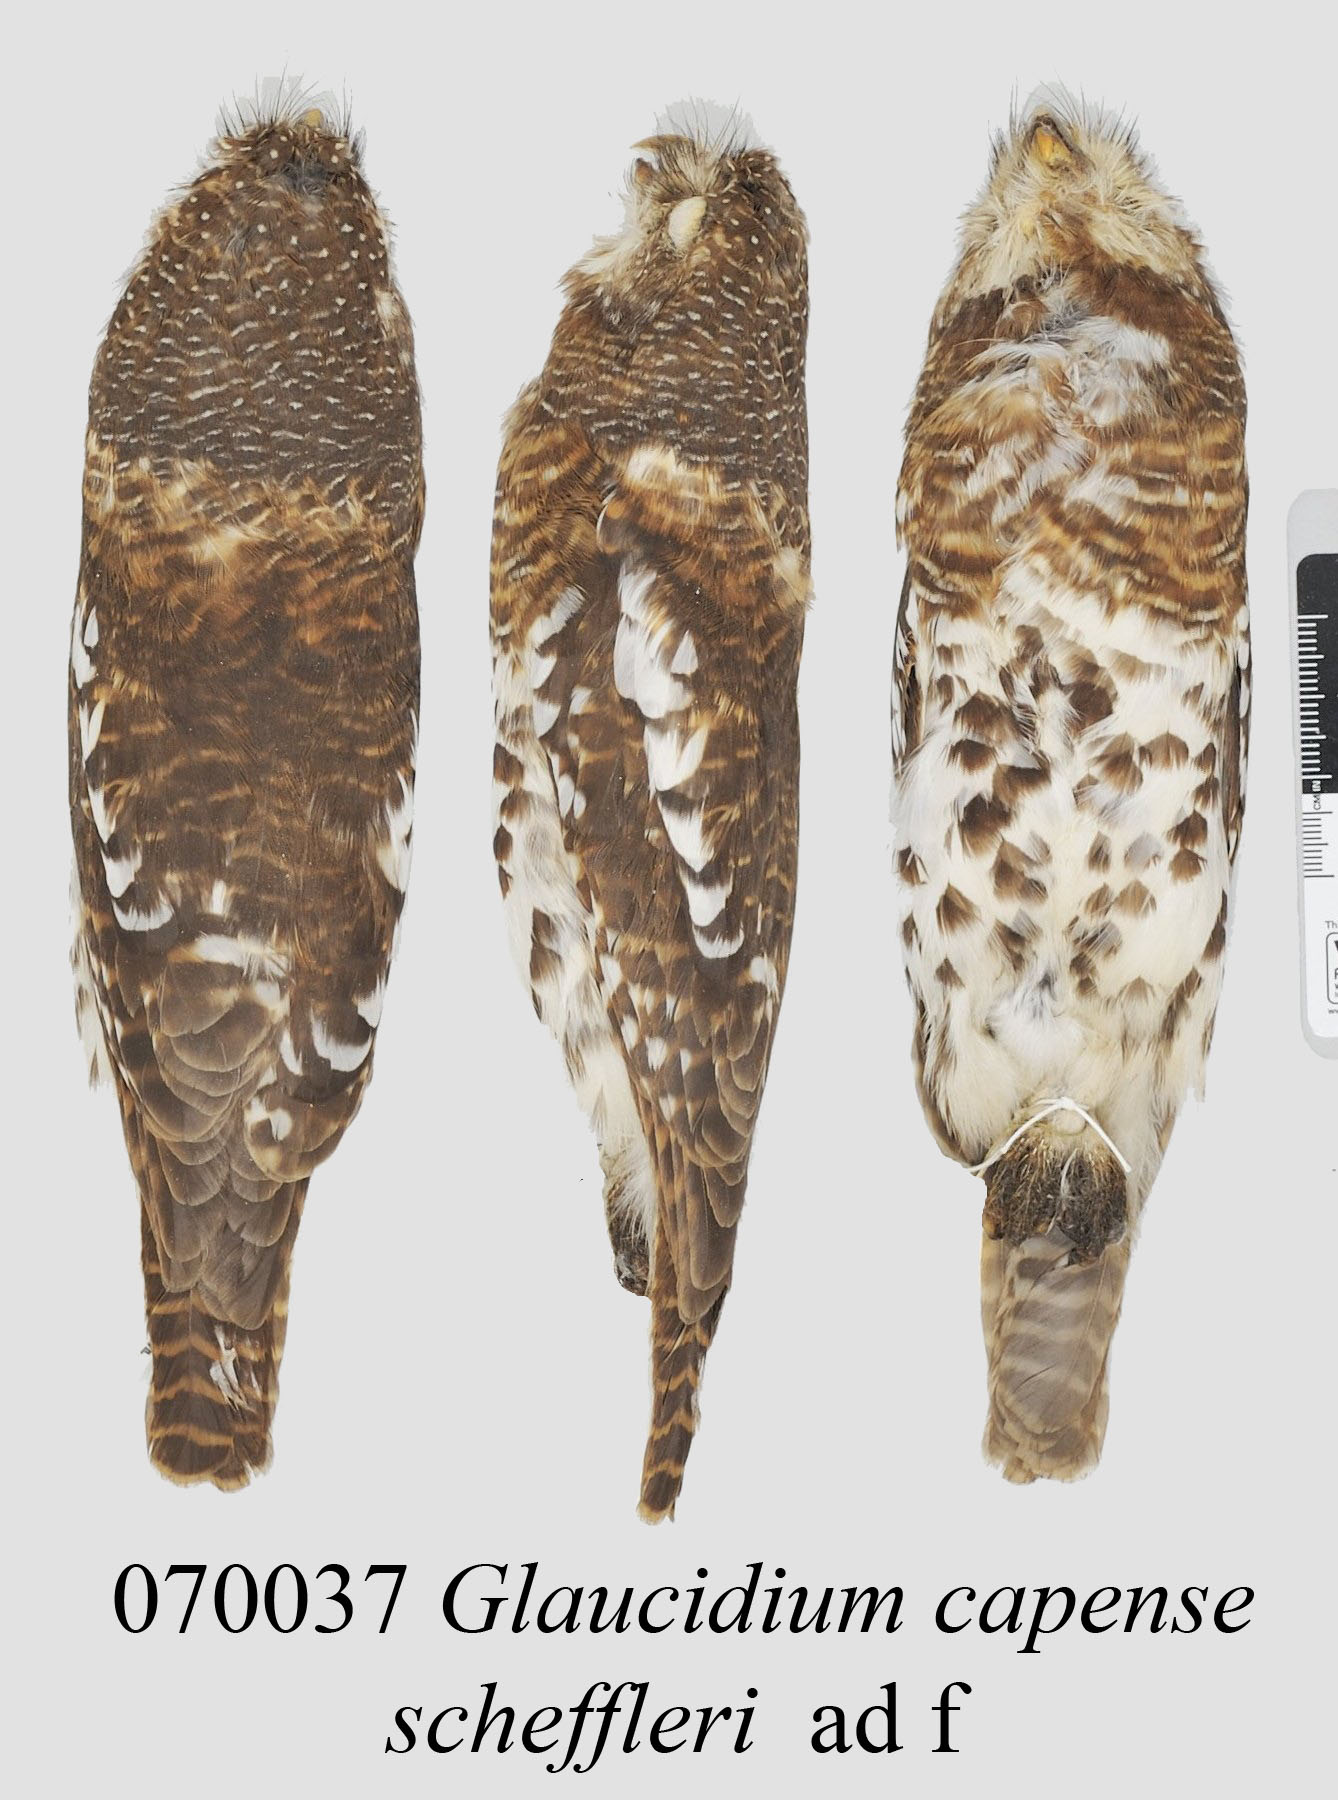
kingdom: Animalia
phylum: Chordata
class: Aves
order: Strigiformes
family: Strigidae
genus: Glaucidium
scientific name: Glaucidium capense
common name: African barred owlet
